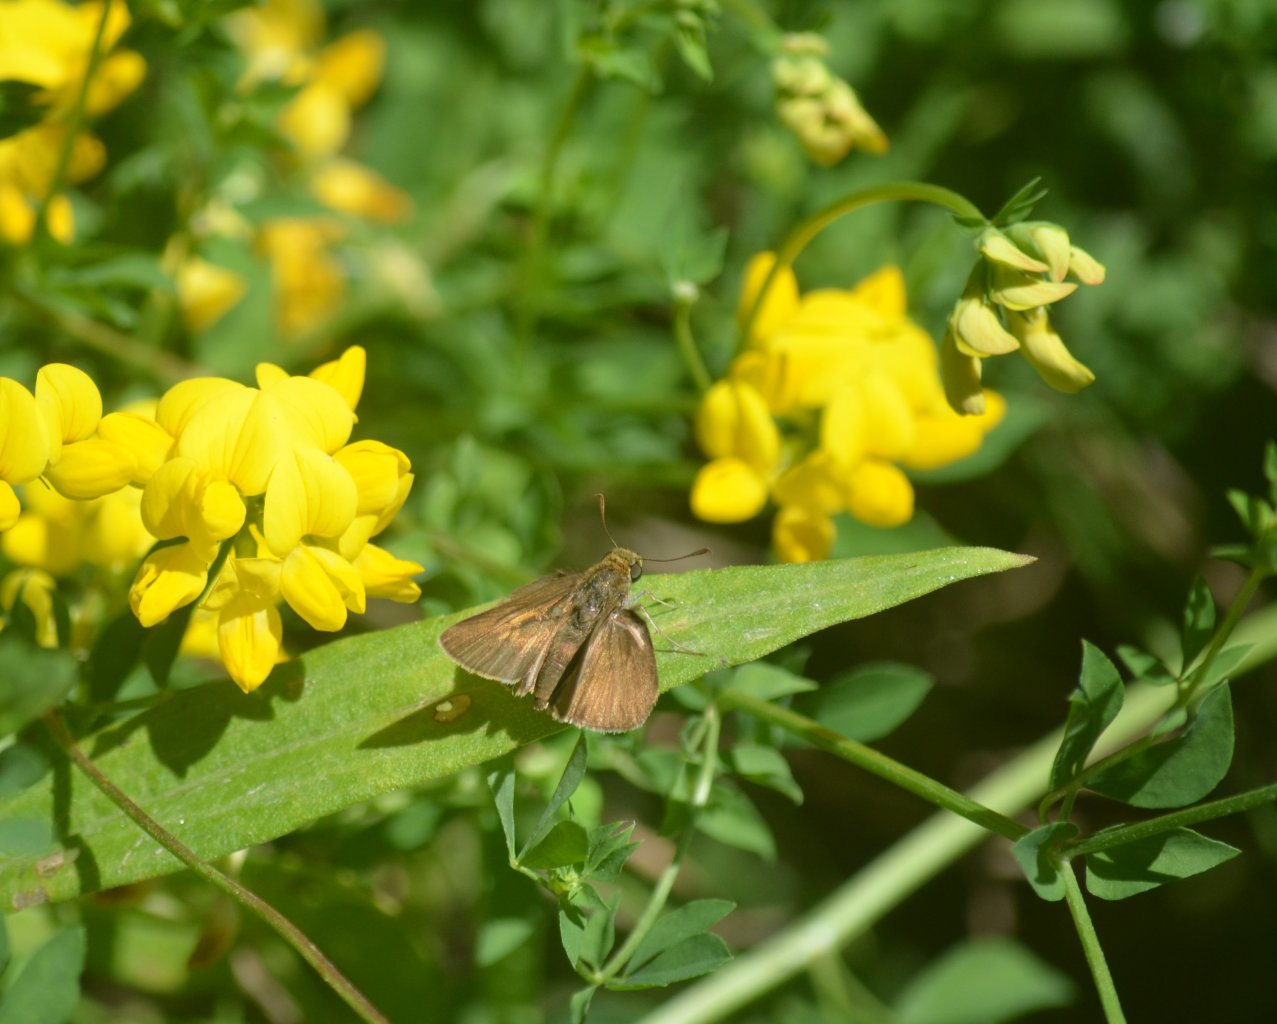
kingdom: Animalia
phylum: Arthropoda
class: Insecta
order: Lepidoptera
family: Hesperiidae
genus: Euphyes
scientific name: Euphyes vestris
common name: Dun Skipper
